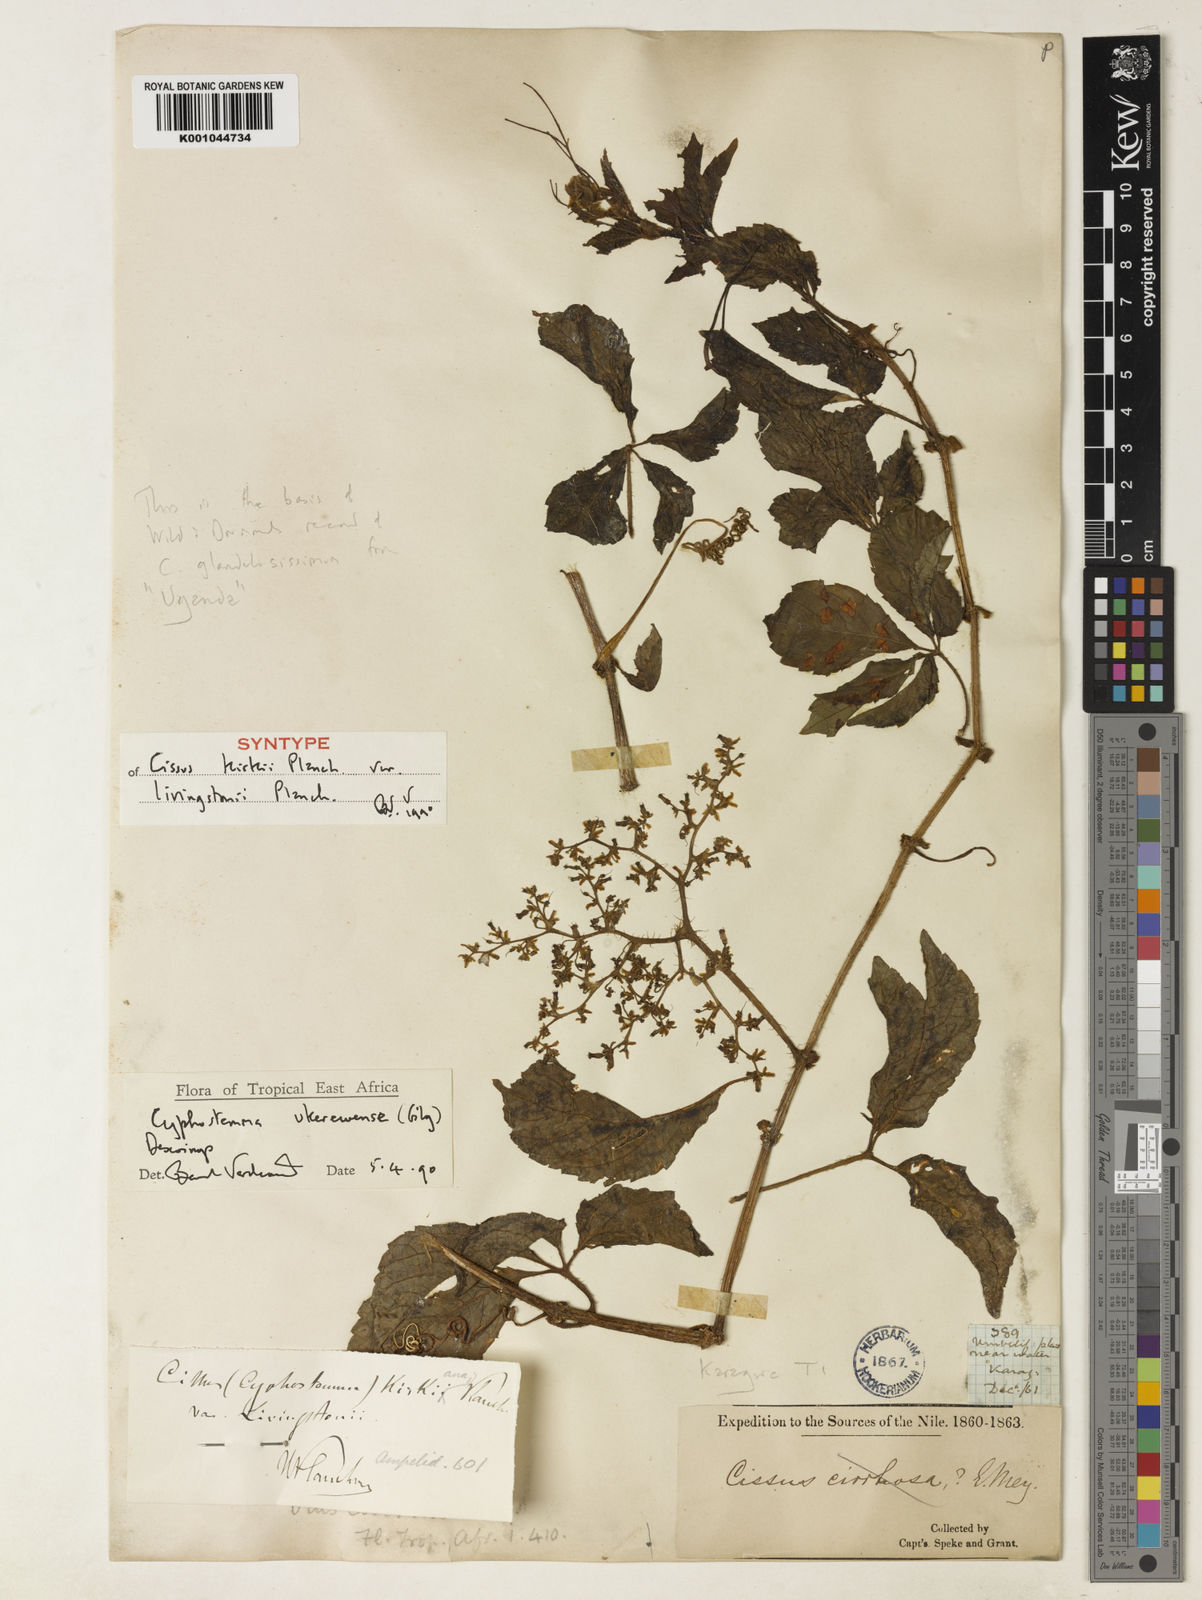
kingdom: Plantae
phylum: Tracheophyta
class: Magnoliopsida
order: Vitales
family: Vitaceae
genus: Cyphostemma
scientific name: Cyphostemma ukerewense
